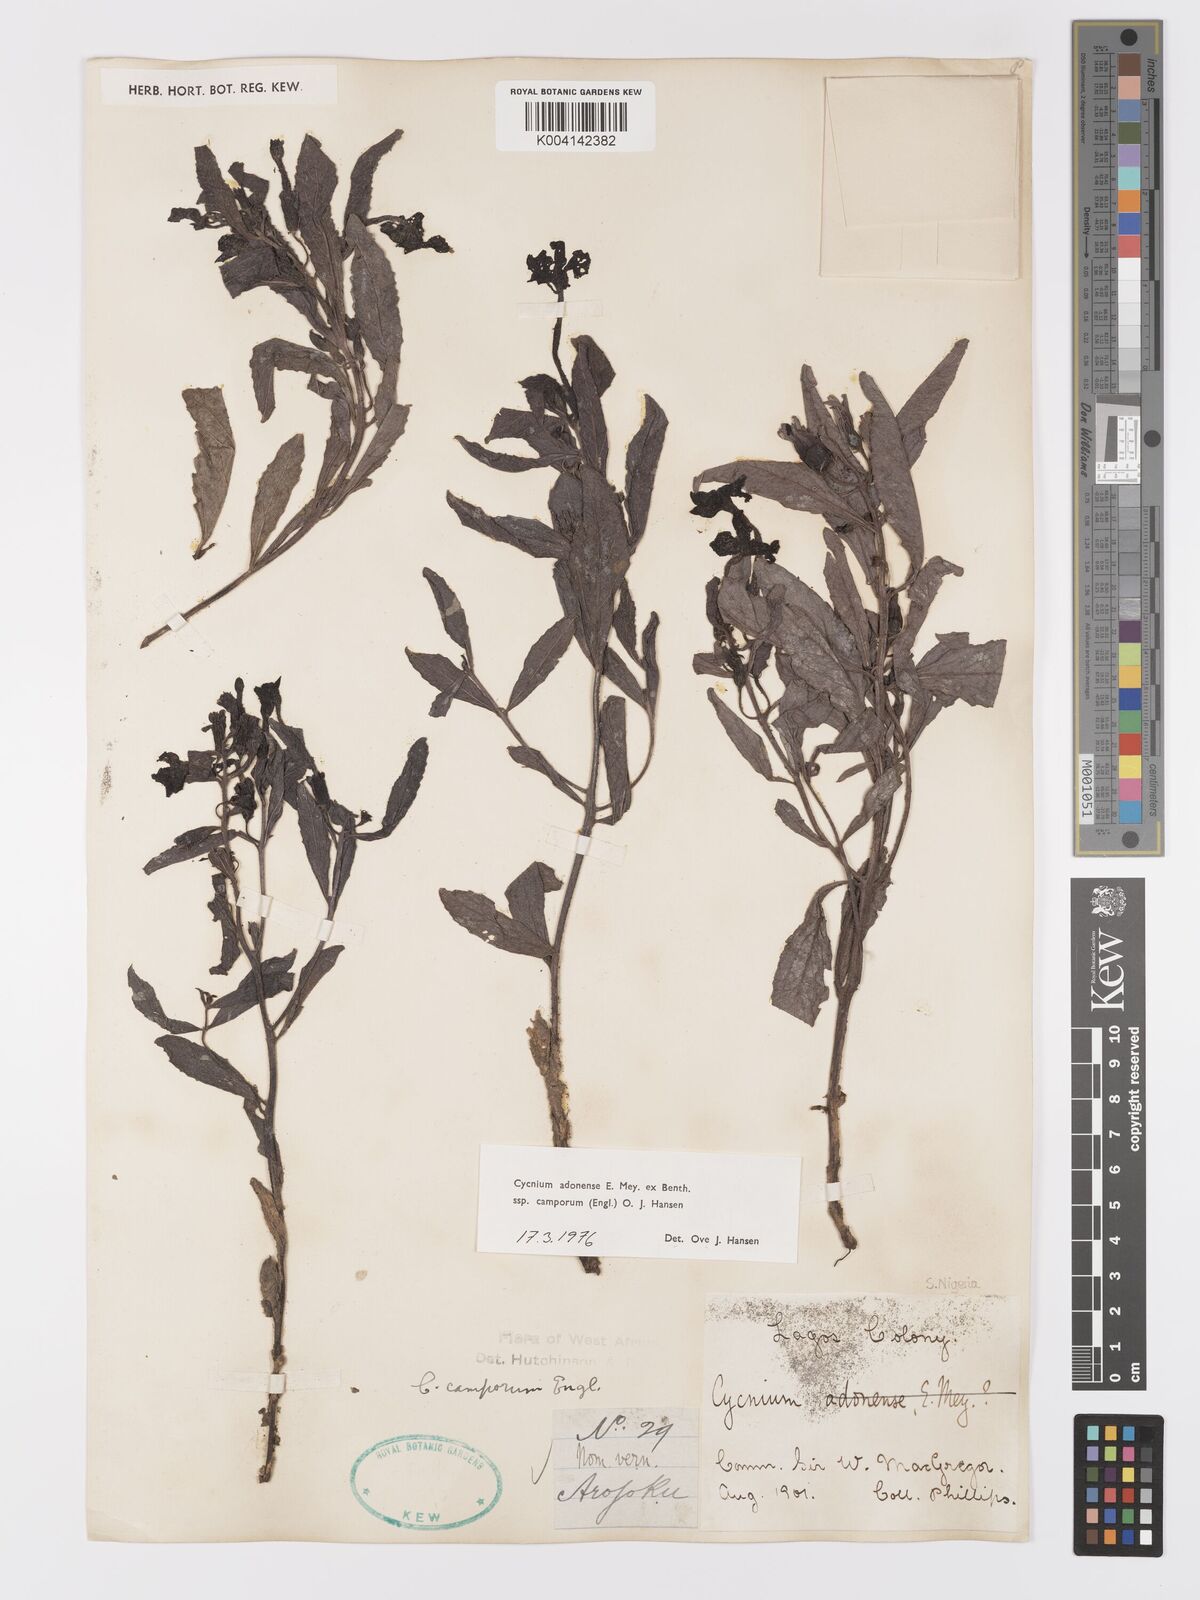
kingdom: Plantae
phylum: Tracheophyta
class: Magnoliopsida
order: Lamiales
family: Orobanchaceae
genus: Cycnium
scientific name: Cycnium adoense
